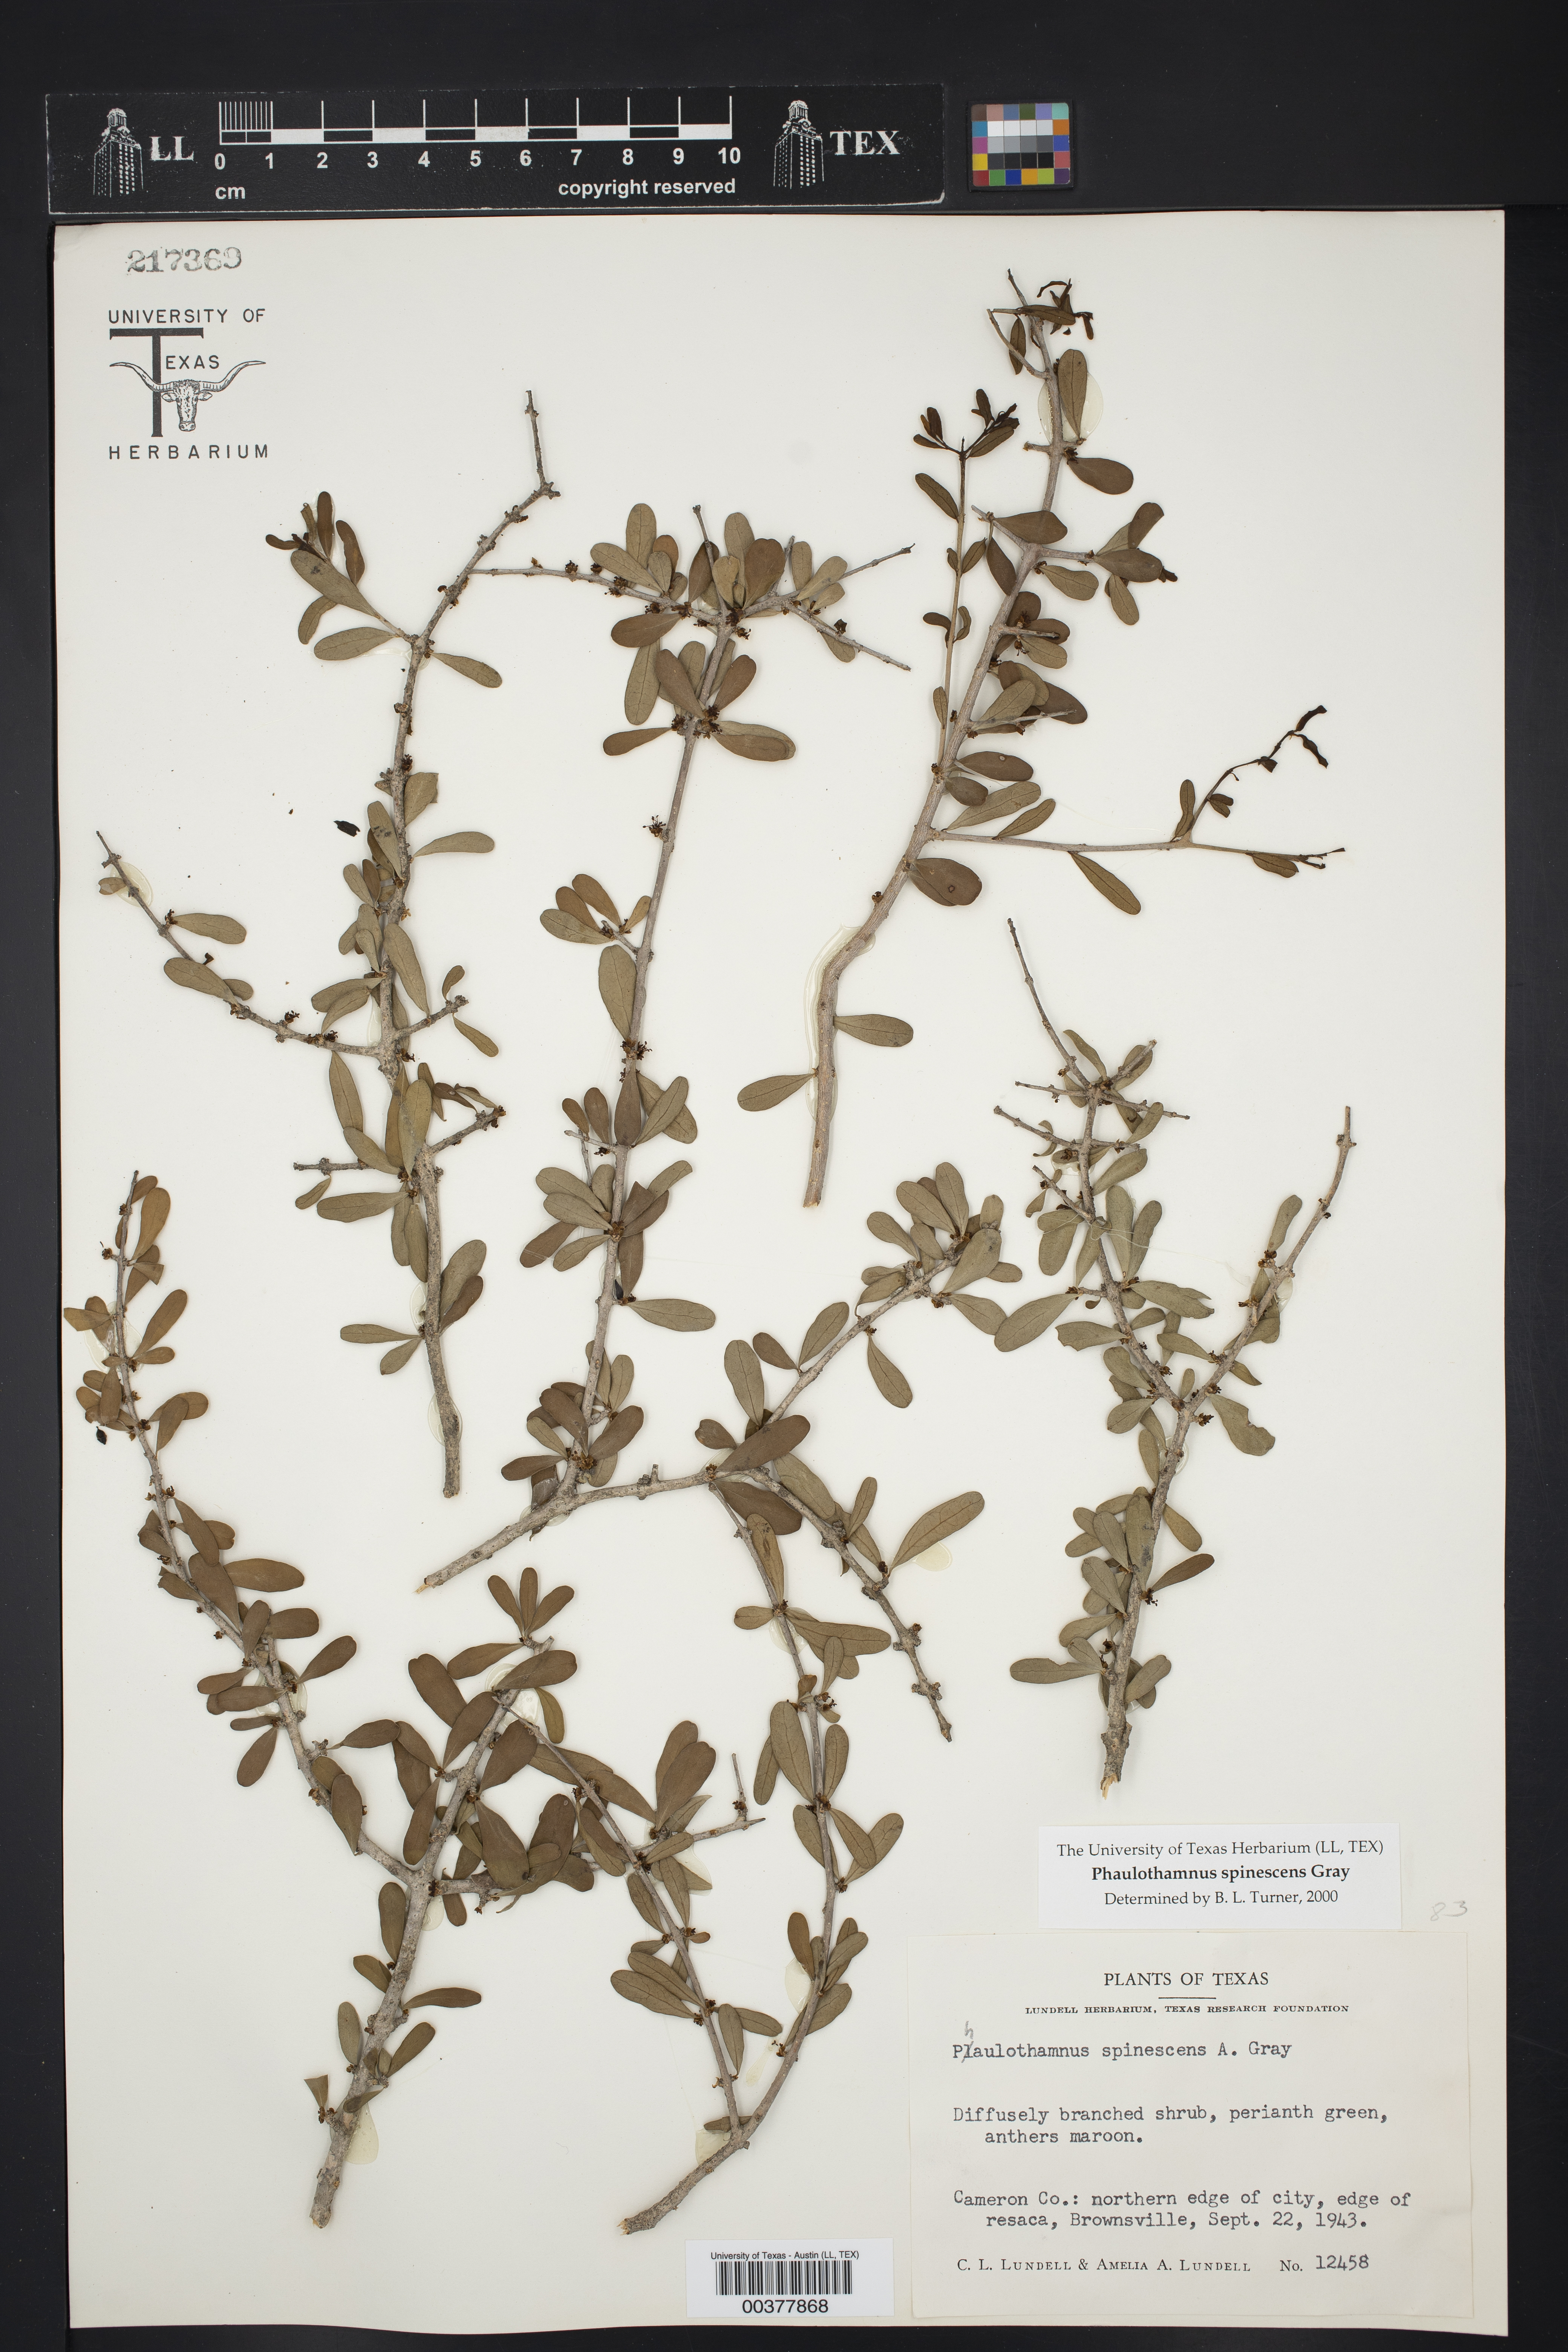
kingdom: Plantae
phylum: Tracheophyta
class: Magnoliopsida
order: Caryophyllales
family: Achatocarpaceae
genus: Phaulothamnus
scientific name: Phaulothamnus spinescens
